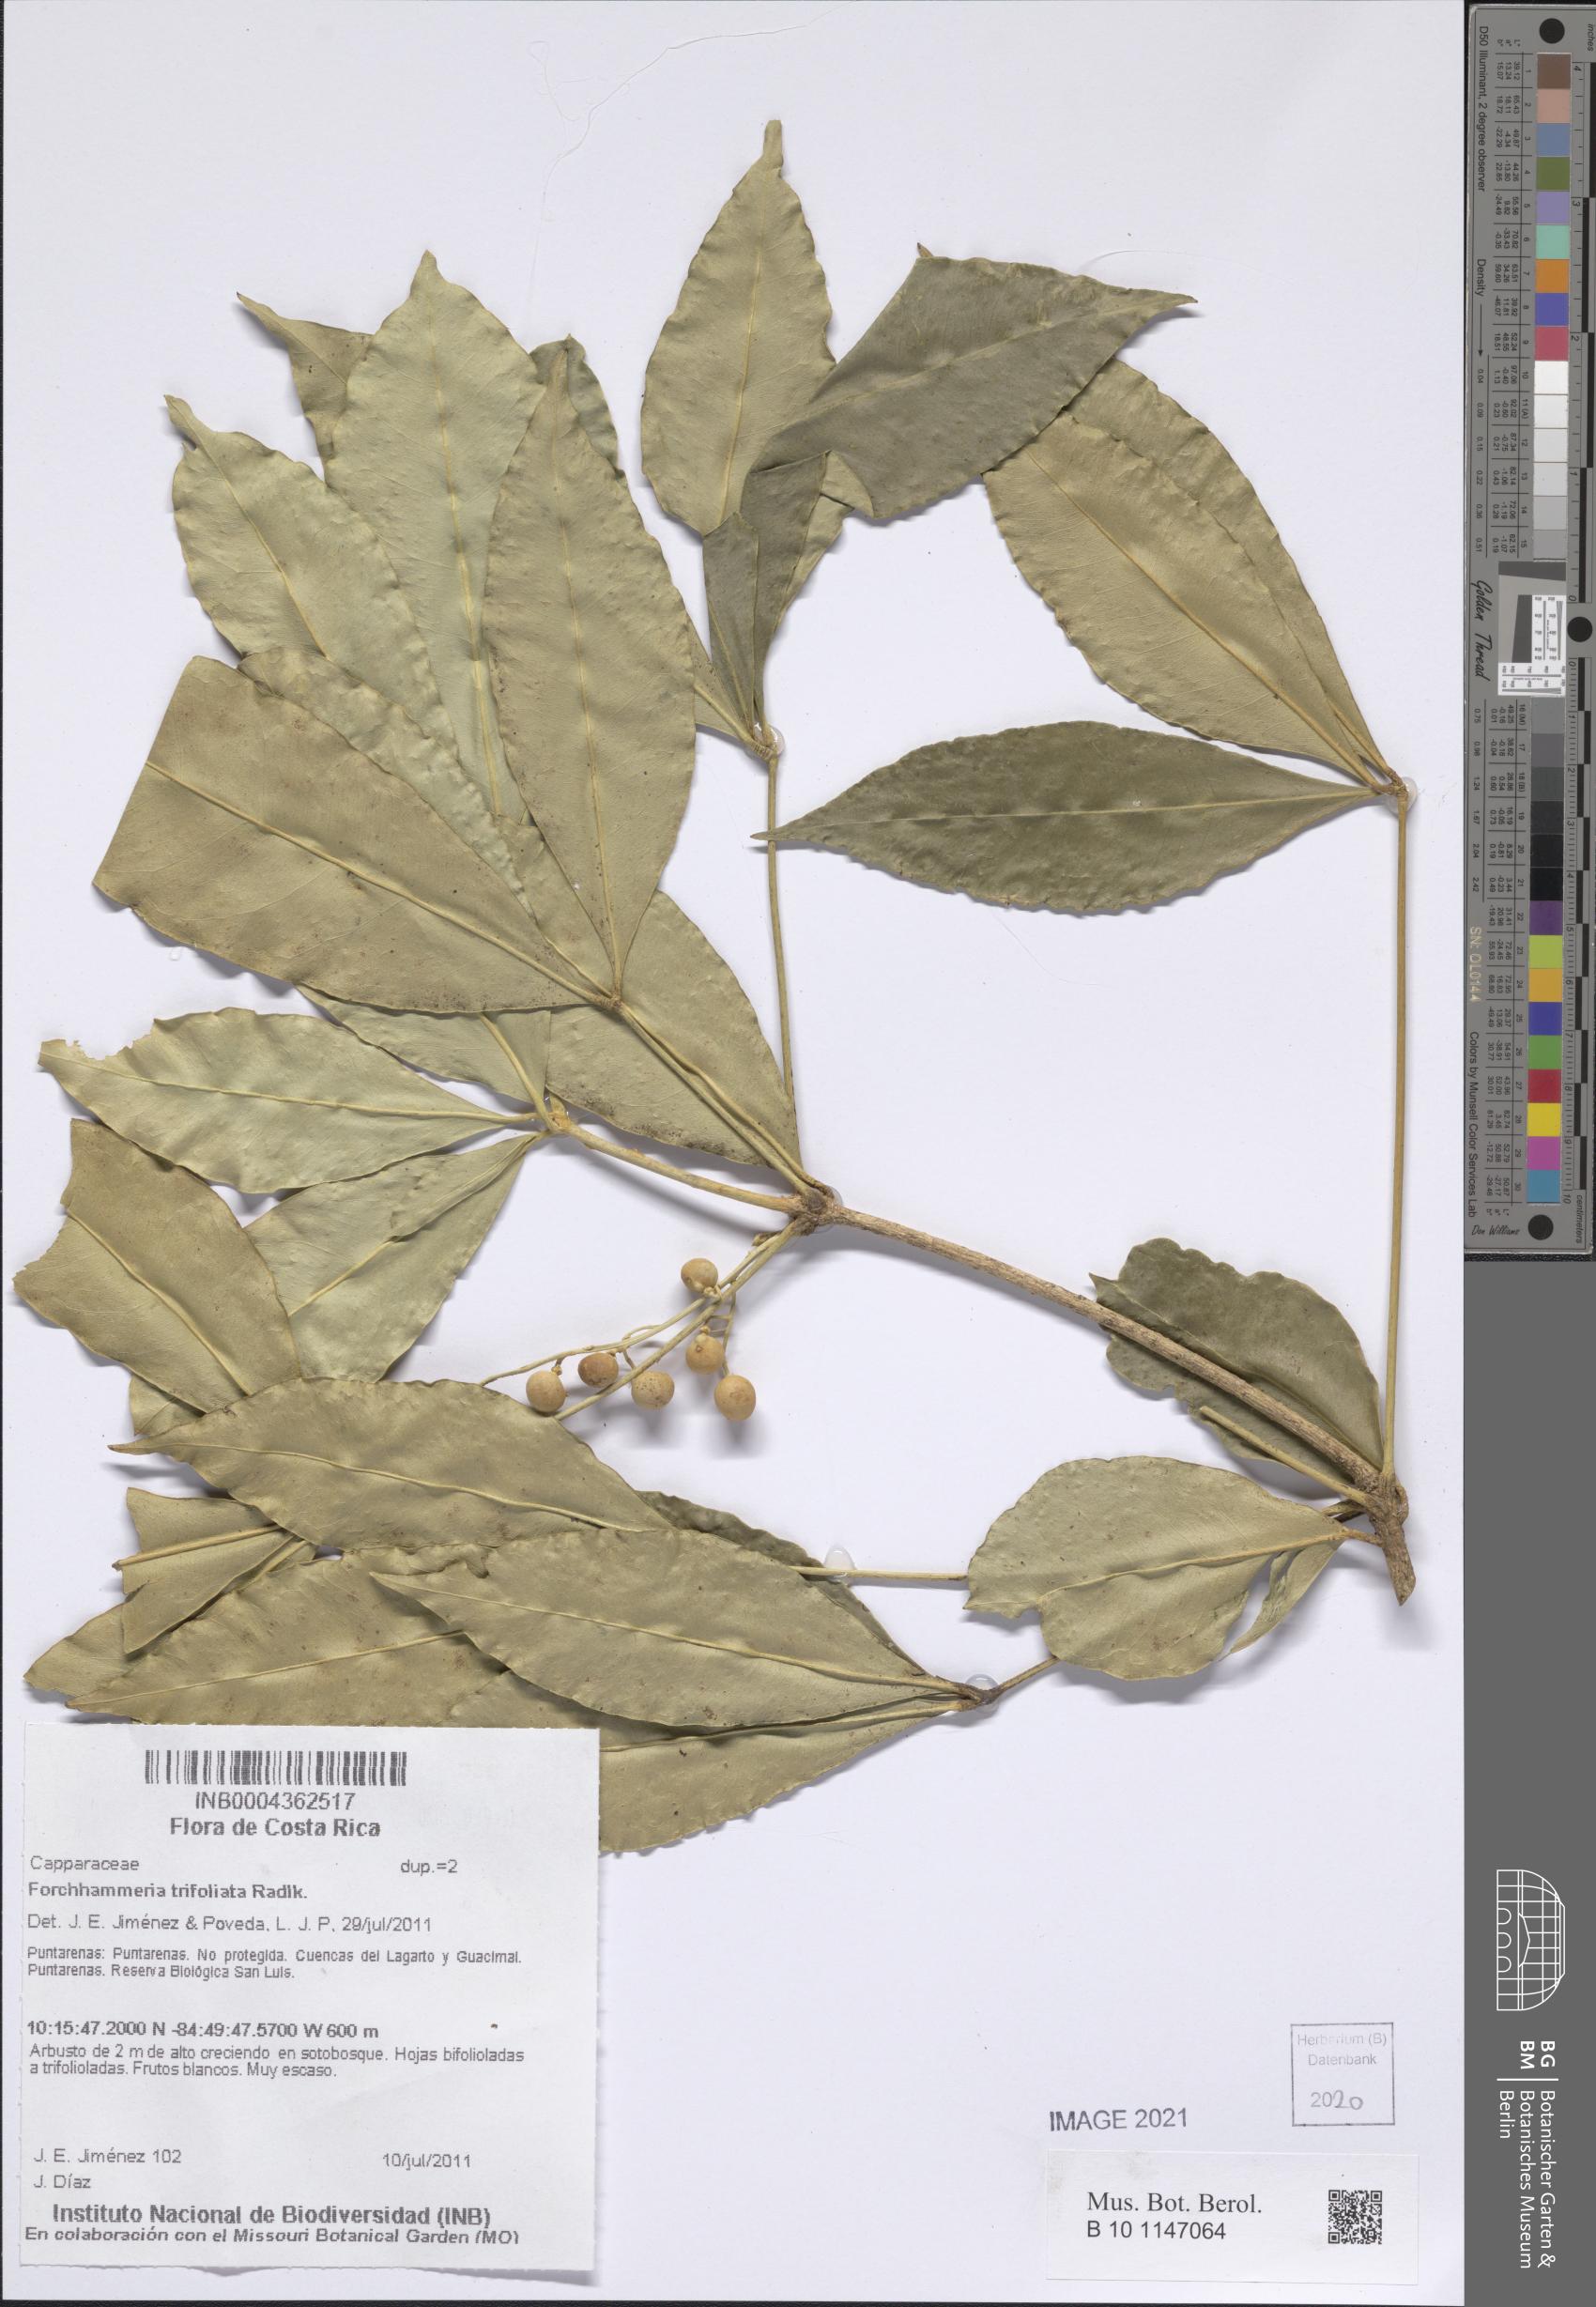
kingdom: Plantae
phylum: Tracheophyta
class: Magnoliopsida
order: Brassicales
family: Stixaceae
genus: Forchhammeria
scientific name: Forchhammeria trifoliata
